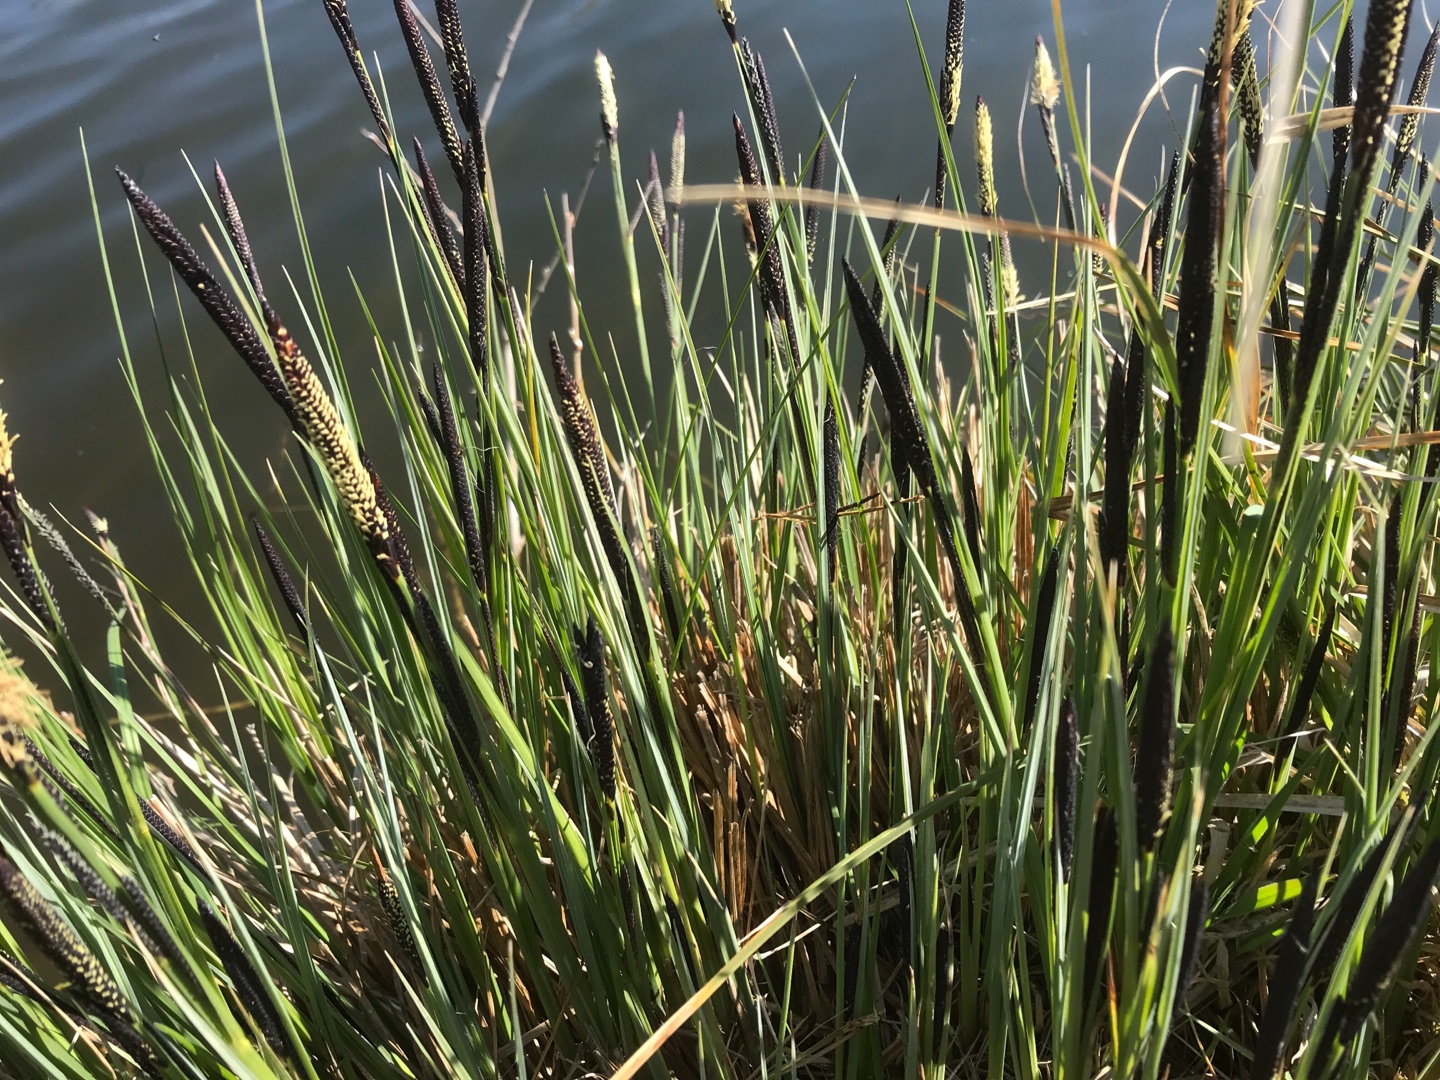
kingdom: Plantae
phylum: Tracheophyta
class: Liliopsida
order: Poales
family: Cyperaceae
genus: Carex
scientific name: Carex
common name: Starslægten
